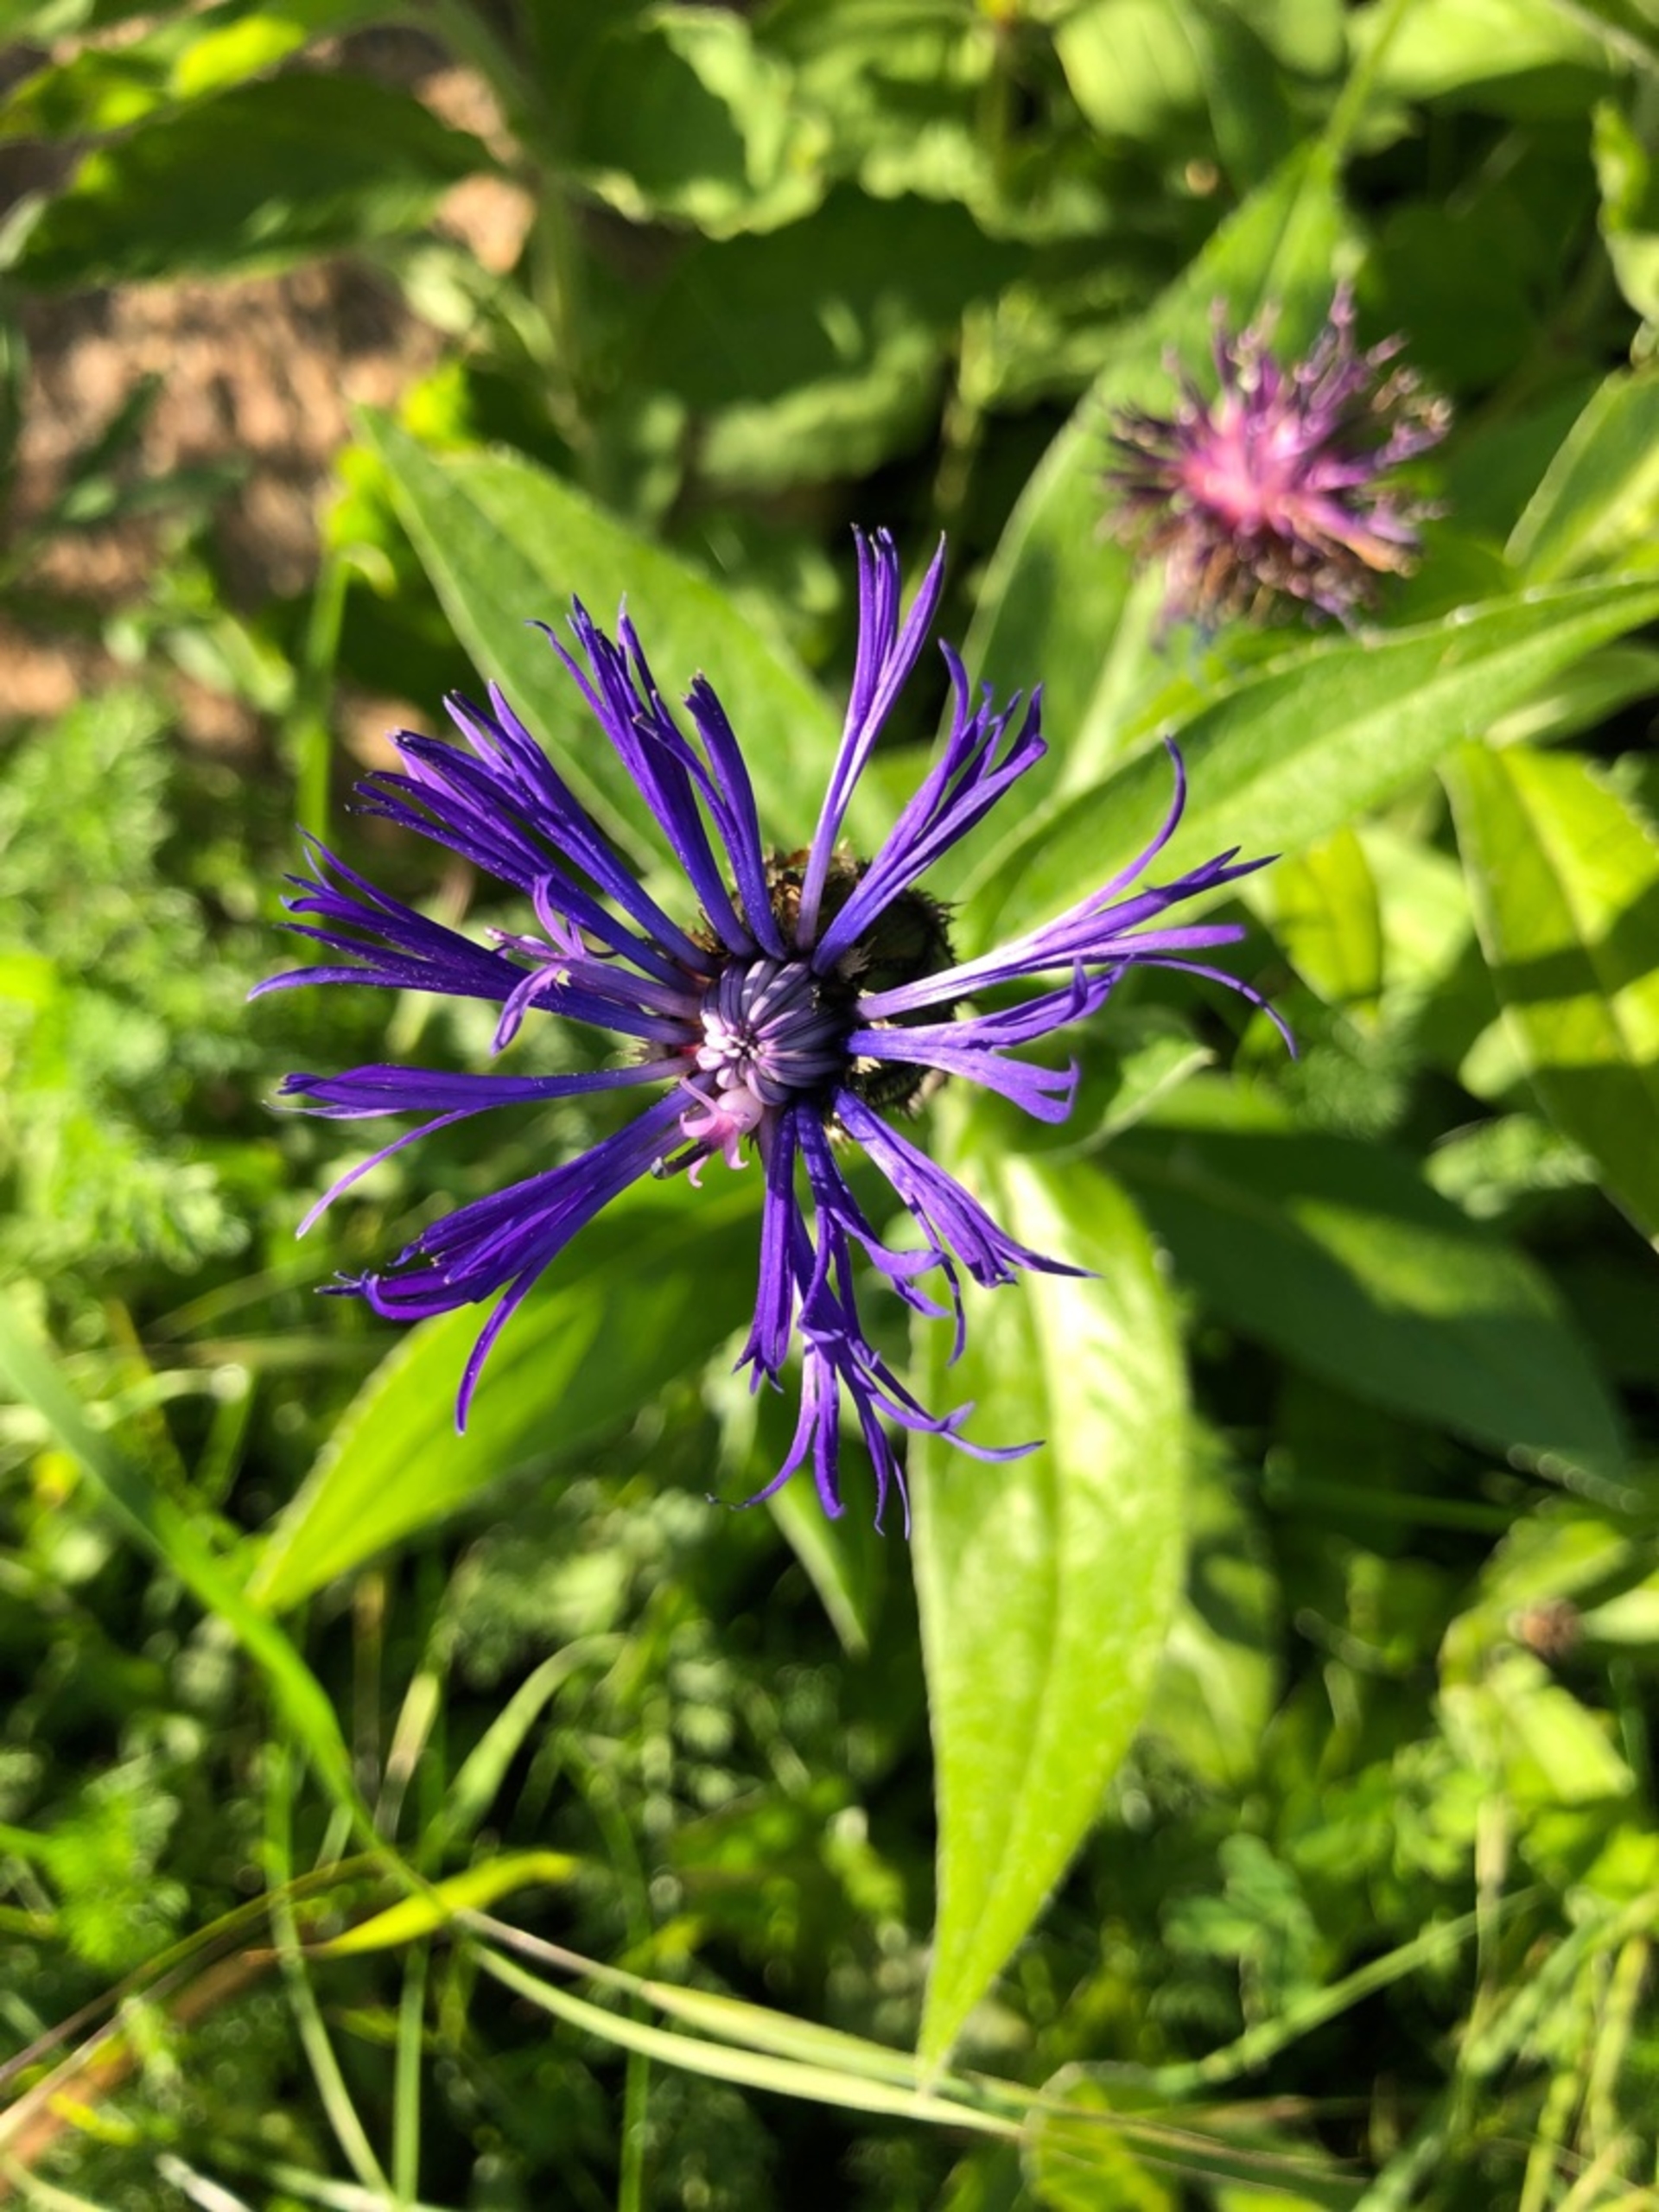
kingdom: Plantae
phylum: Tracheophyta
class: Magnoliopsida
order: Asterales
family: Asteraceae
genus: Centaurea
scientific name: Centaurea montana
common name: Bjerg-knopurt
